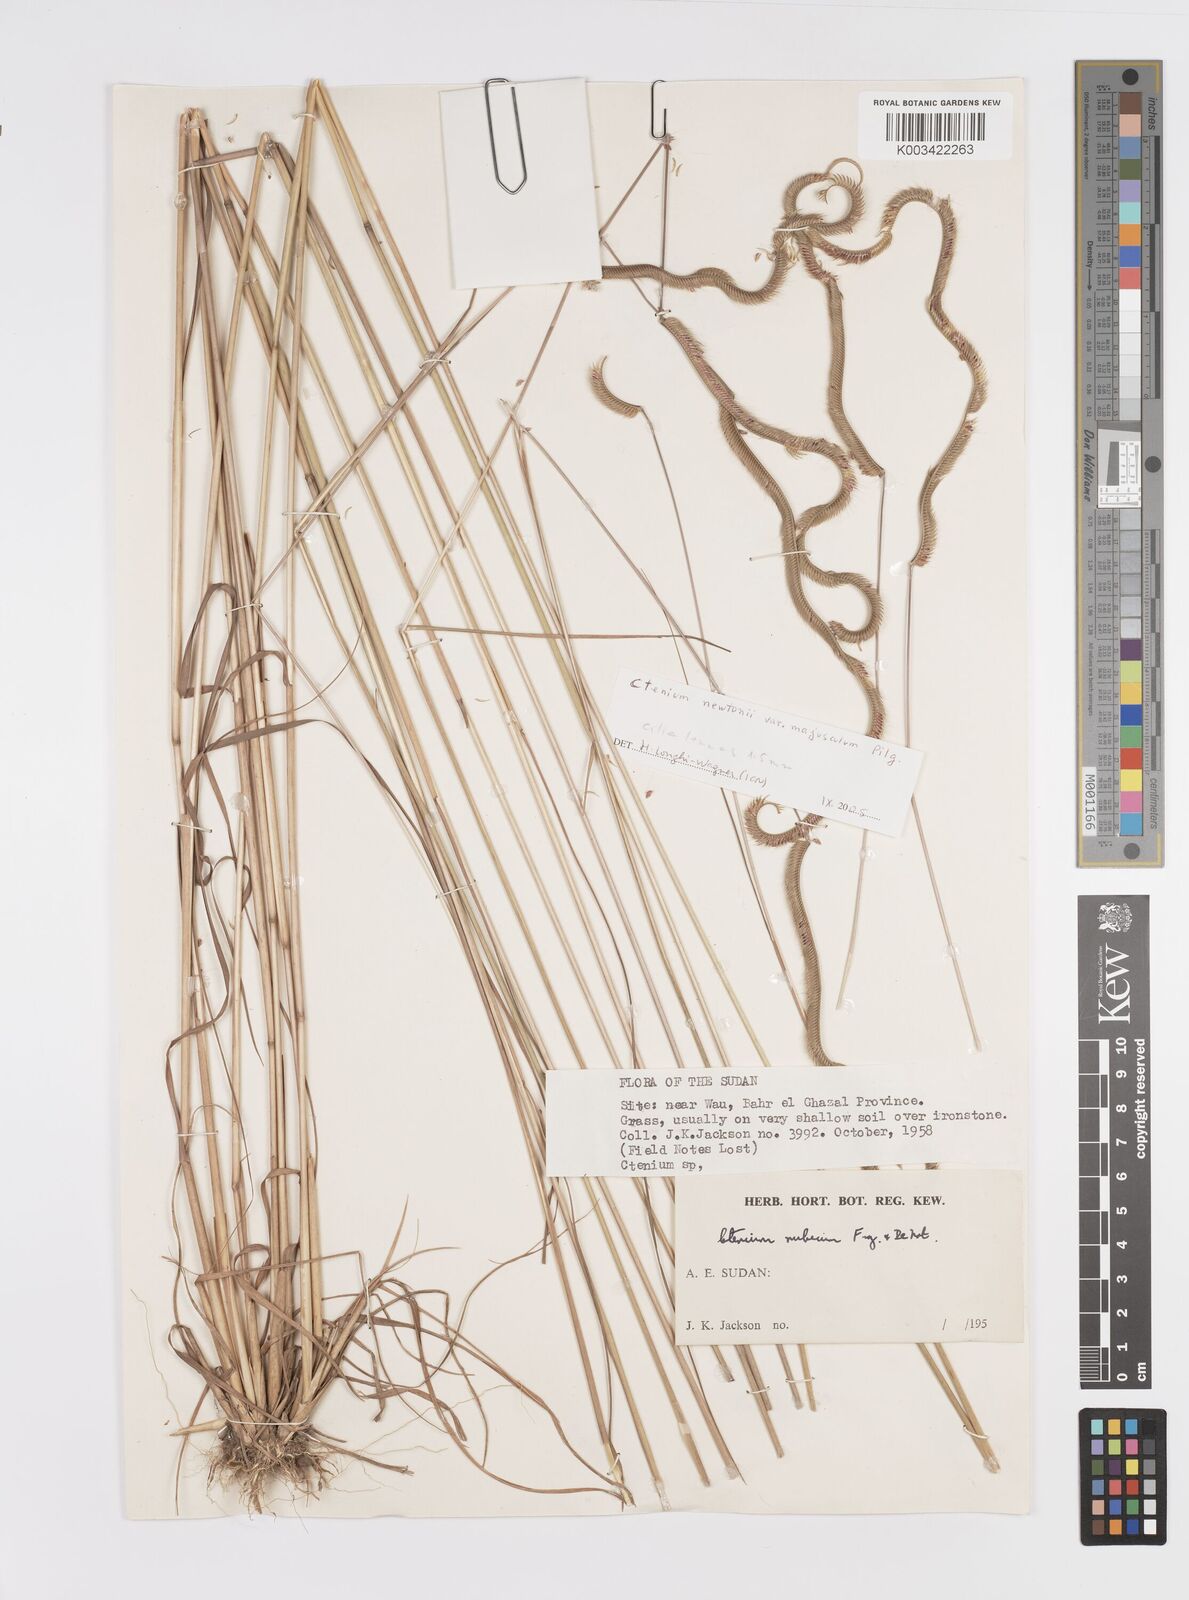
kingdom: Plantae
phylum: Tracheophyta
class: Liliopsida
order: Poales
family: Poaceae
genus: Ctenium
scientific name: Ctenium newtonii
